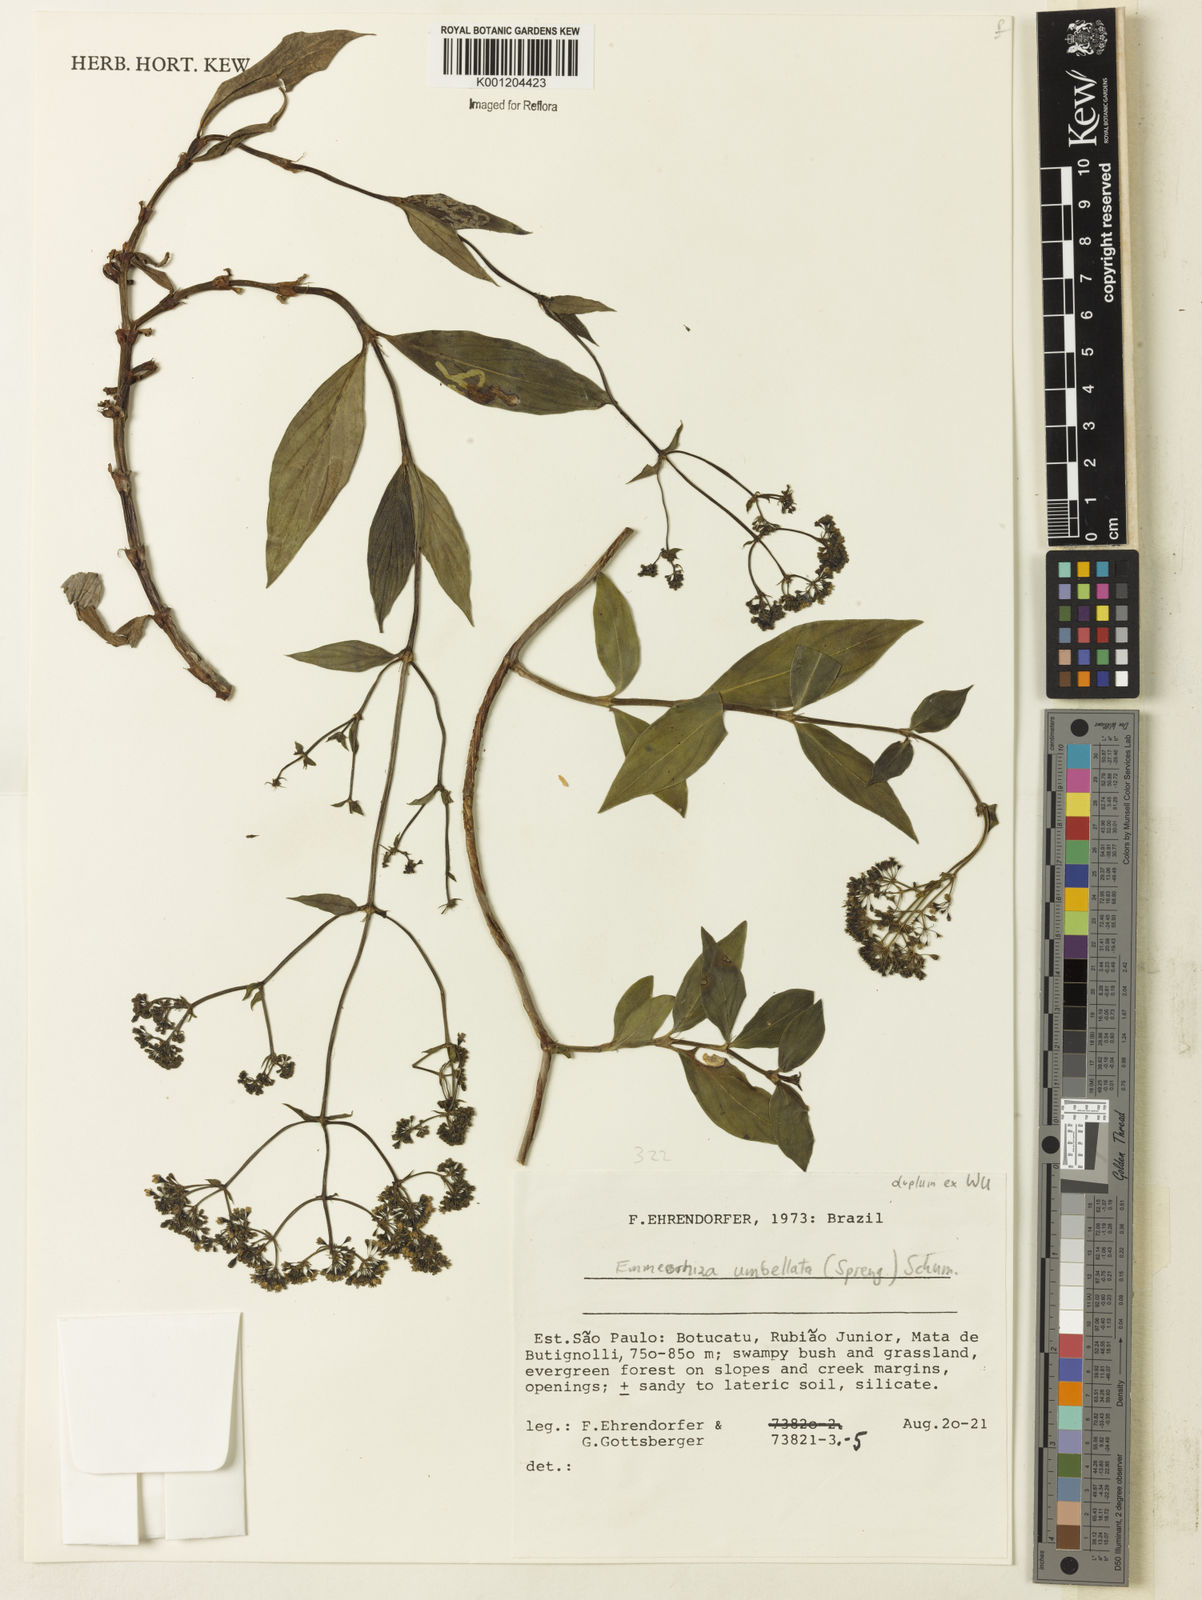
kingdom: Plantae
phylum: Tracheophyta
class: Magnoliopsida
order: Gentianales
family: Rubiaceae
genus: Emmeorhiza
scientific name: Emmeorhiza umbellata
